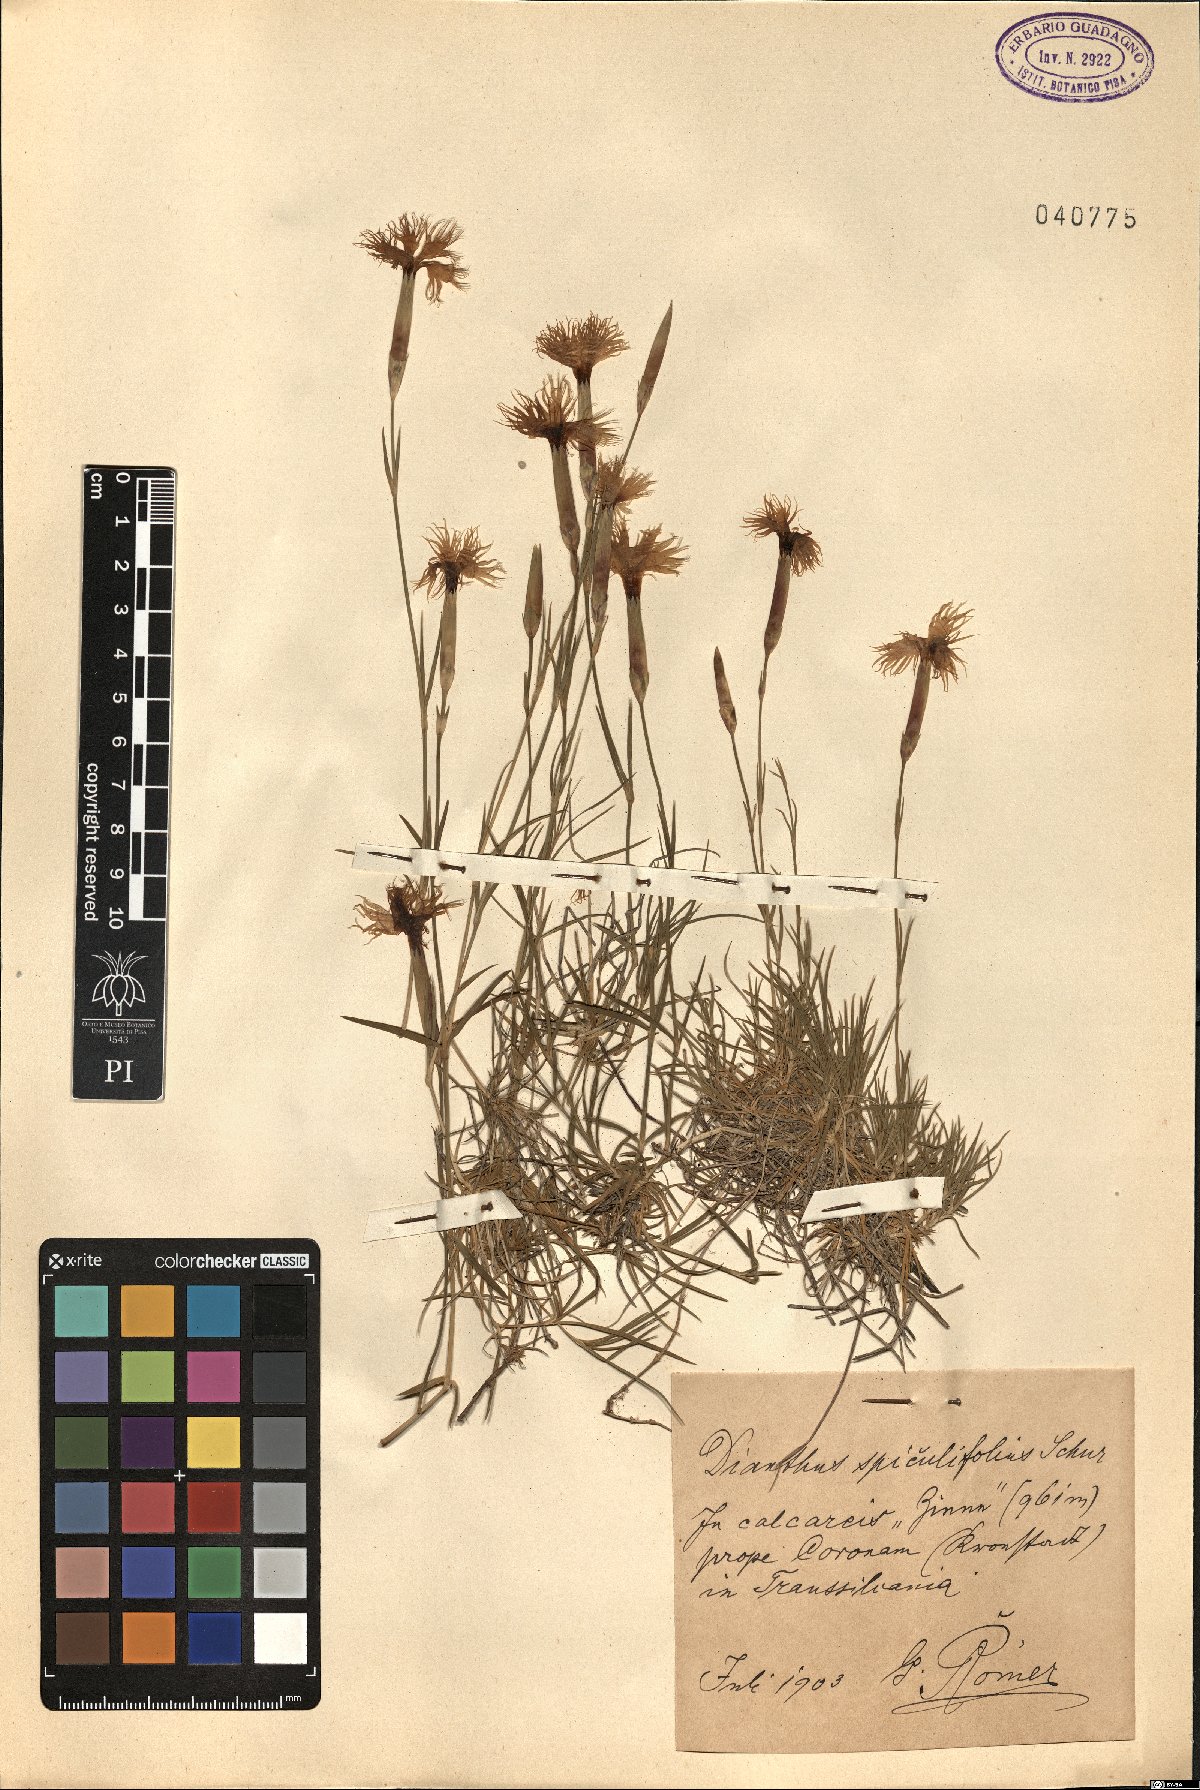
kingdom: Plantae
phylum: Tracheophyta
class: Magnoliopsida
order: Caryophyllales
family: Caryophyllaceae
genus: Dianthus
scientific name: Dianthus spiculifolius
